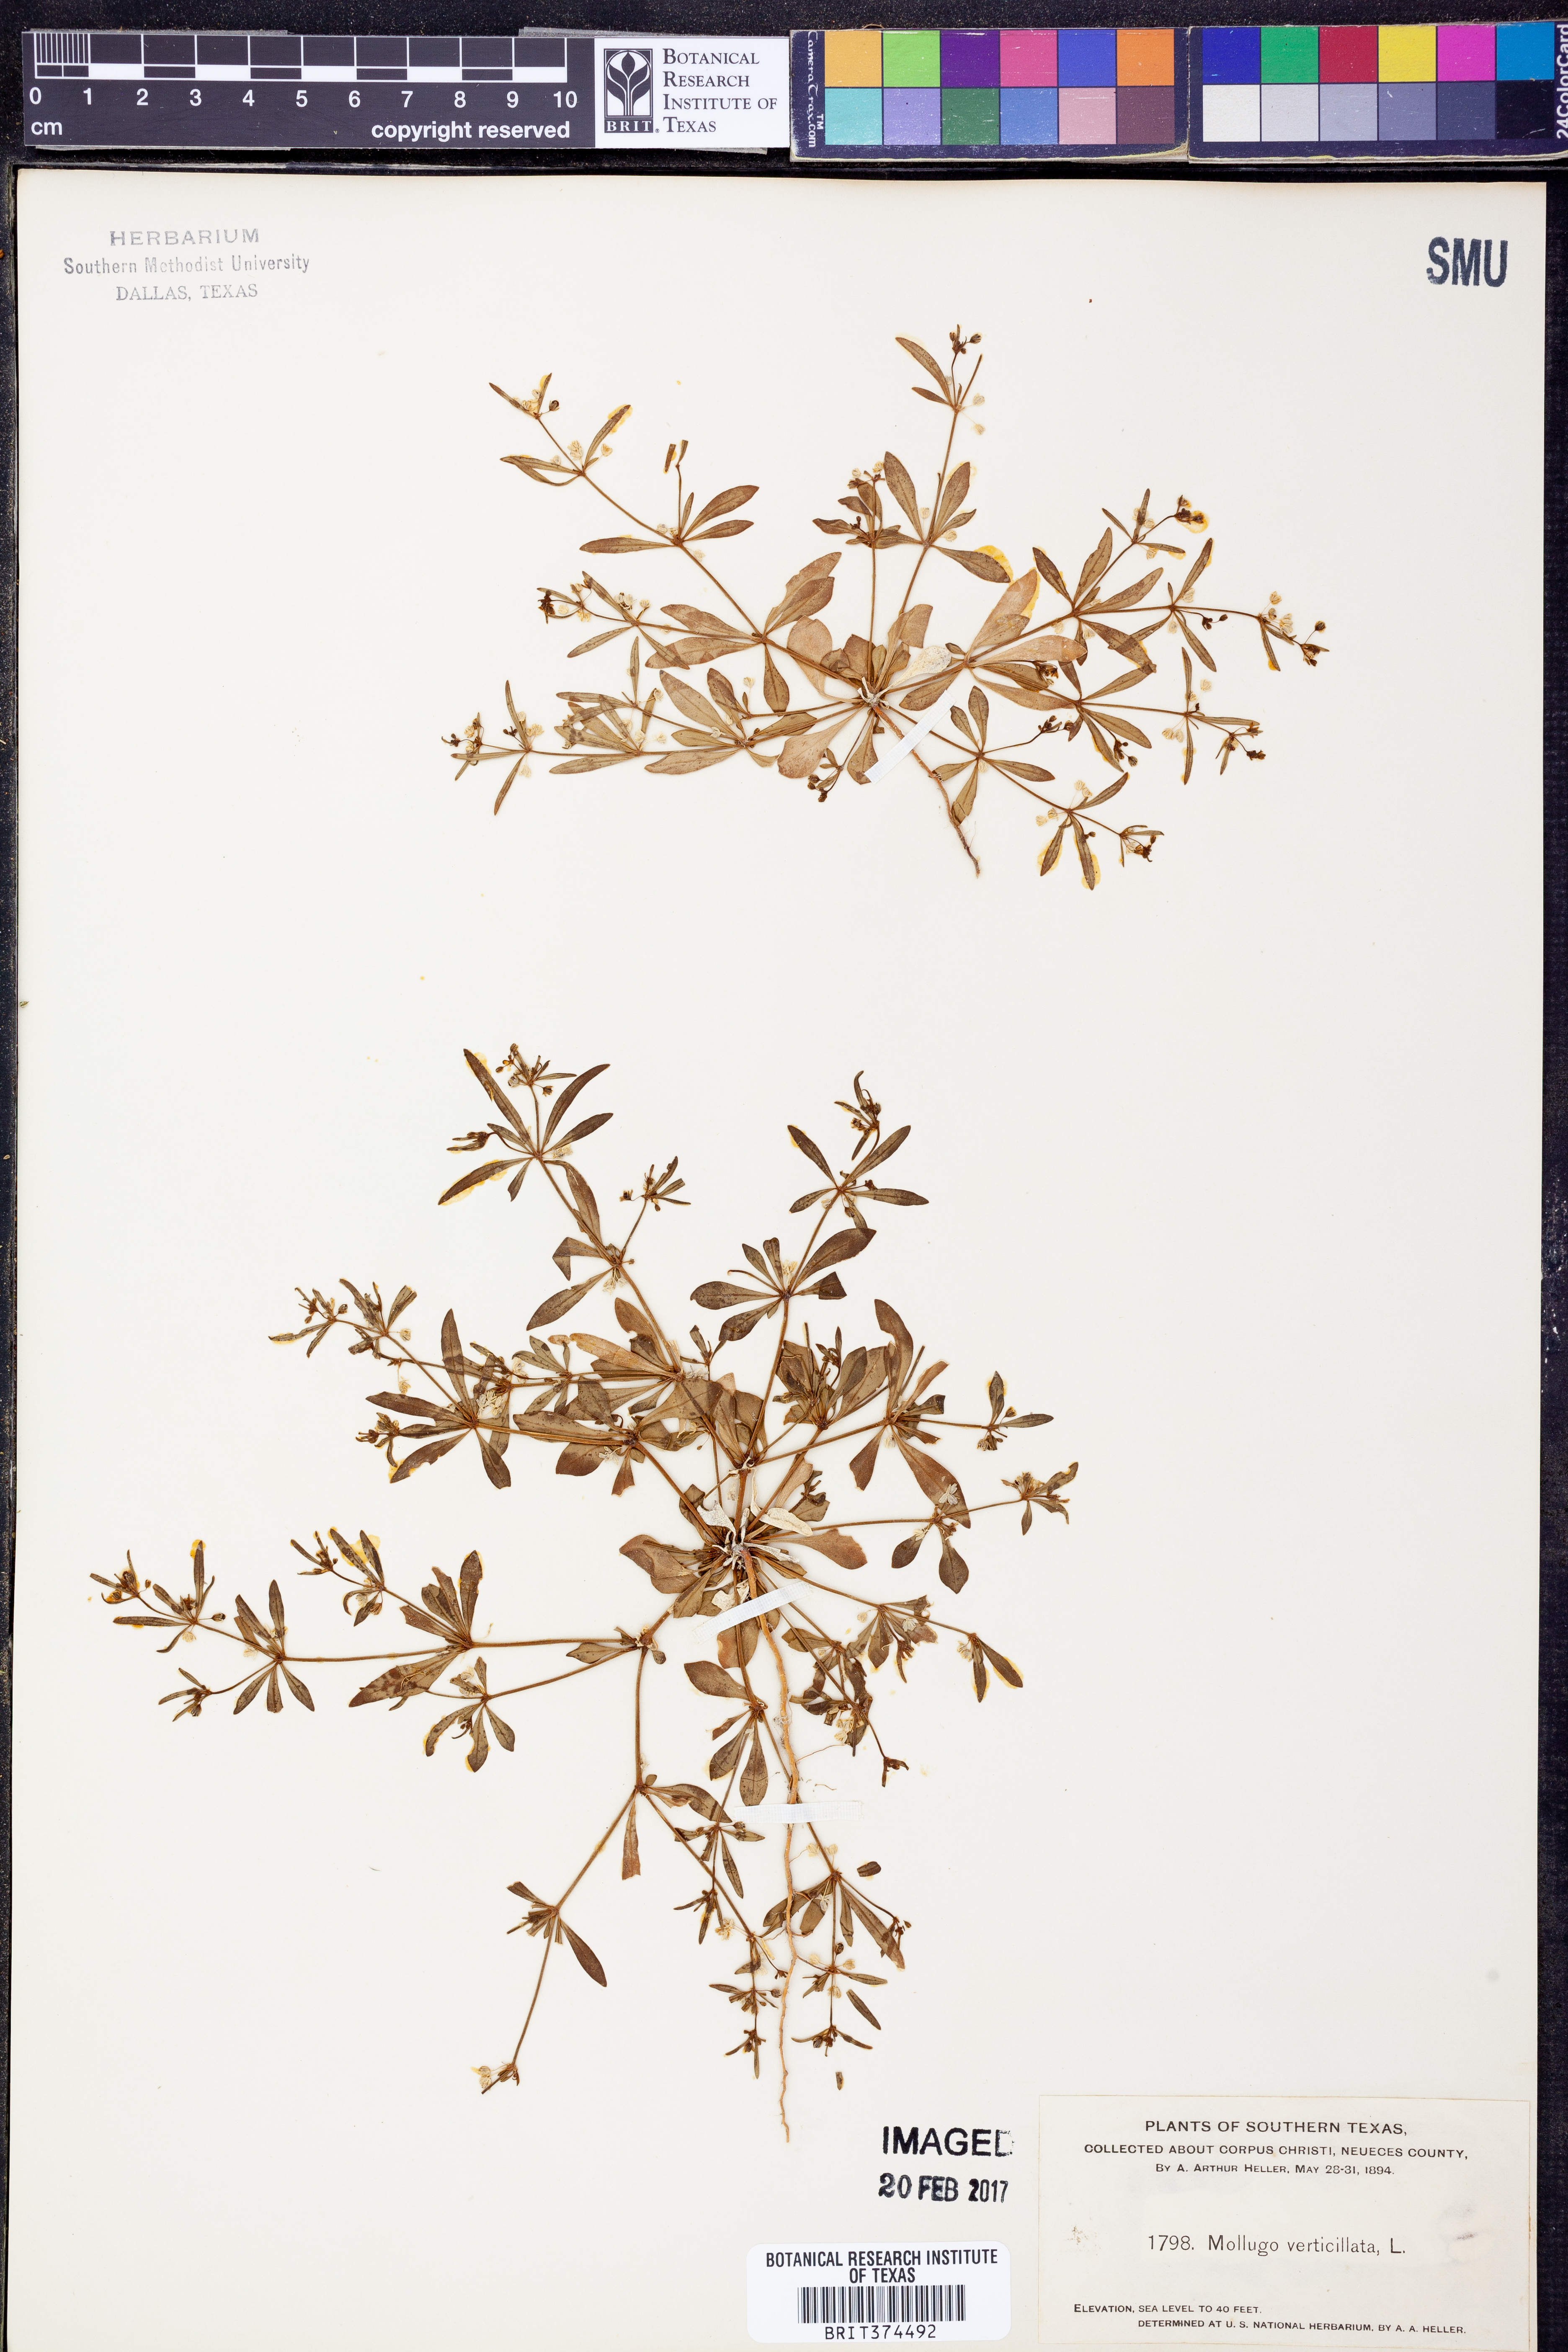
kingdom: Plantae
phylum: Tracheophyta
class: Magnoliopsida
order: Caryophyllales
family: Molluginaceae
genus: Mollugo
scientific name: Mollugo verticillata
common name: Green carpetweed
